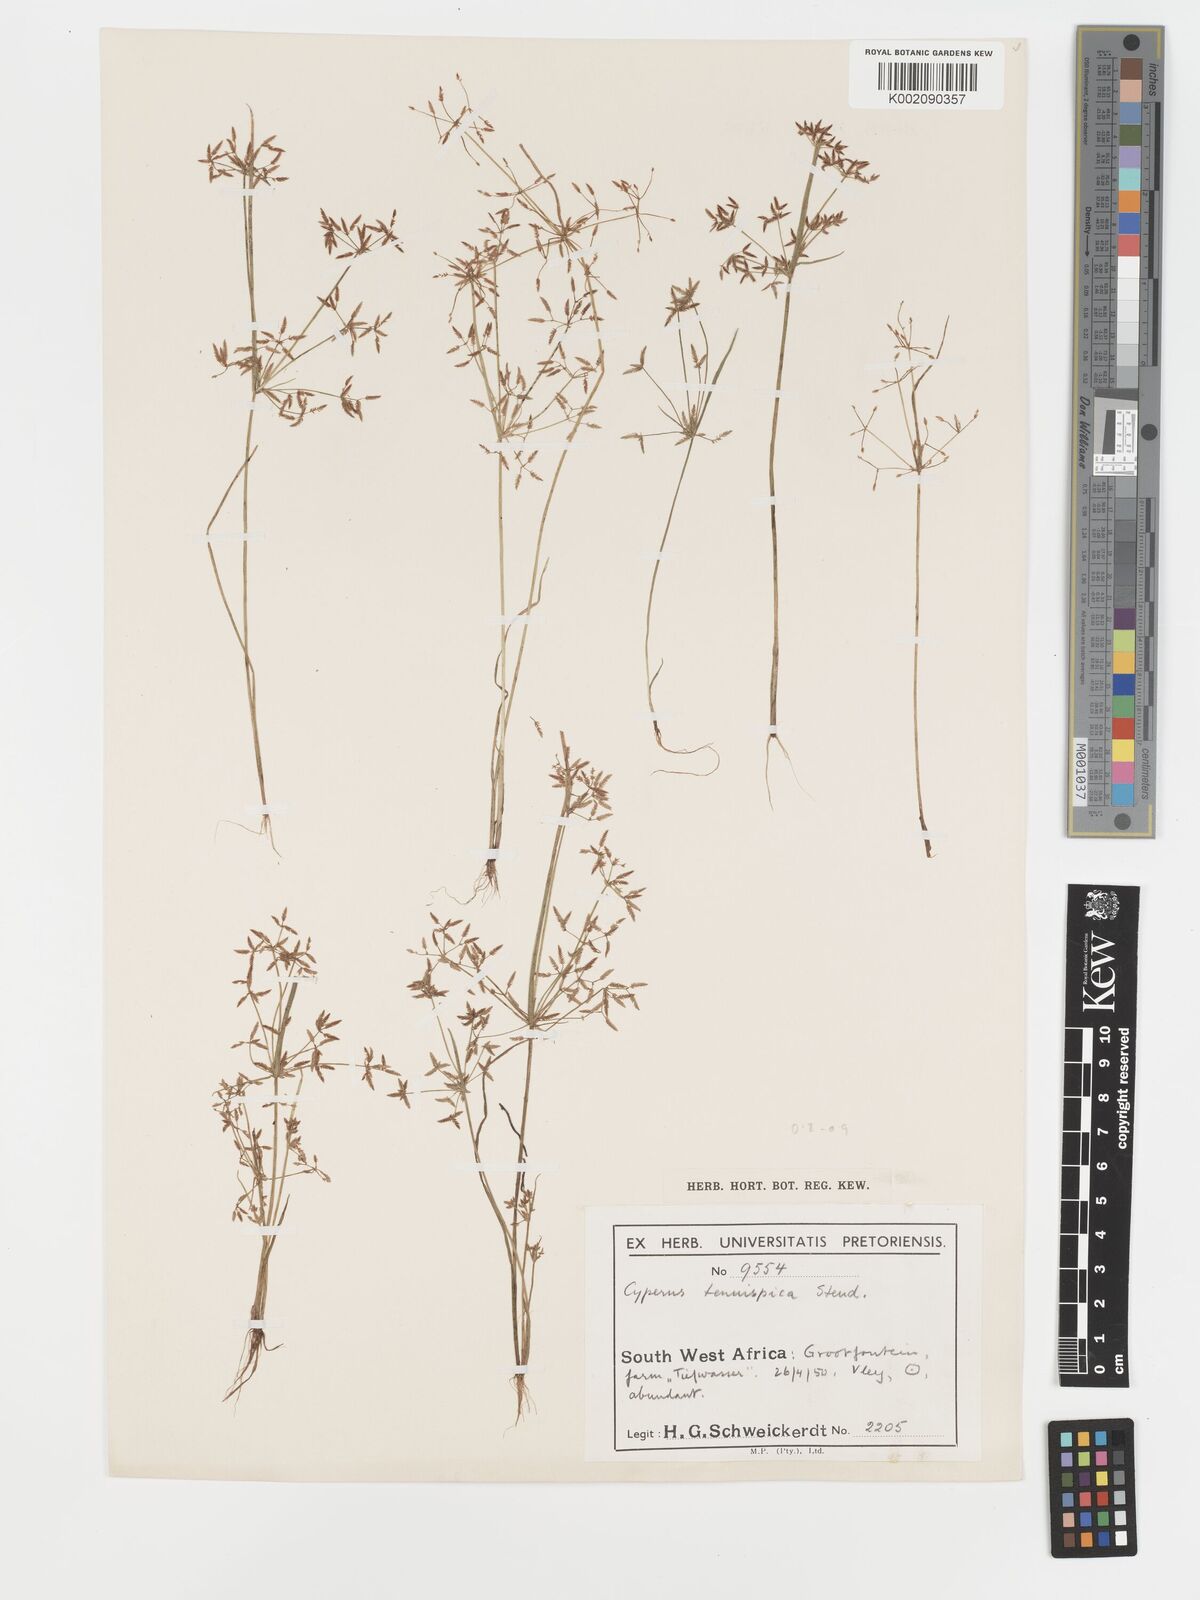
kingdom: Plantae
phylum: Tracheophyta
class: Liliopsida
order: Poales
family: Cyperaceae
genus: Cyperus
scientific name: Cyperus tenuispica
